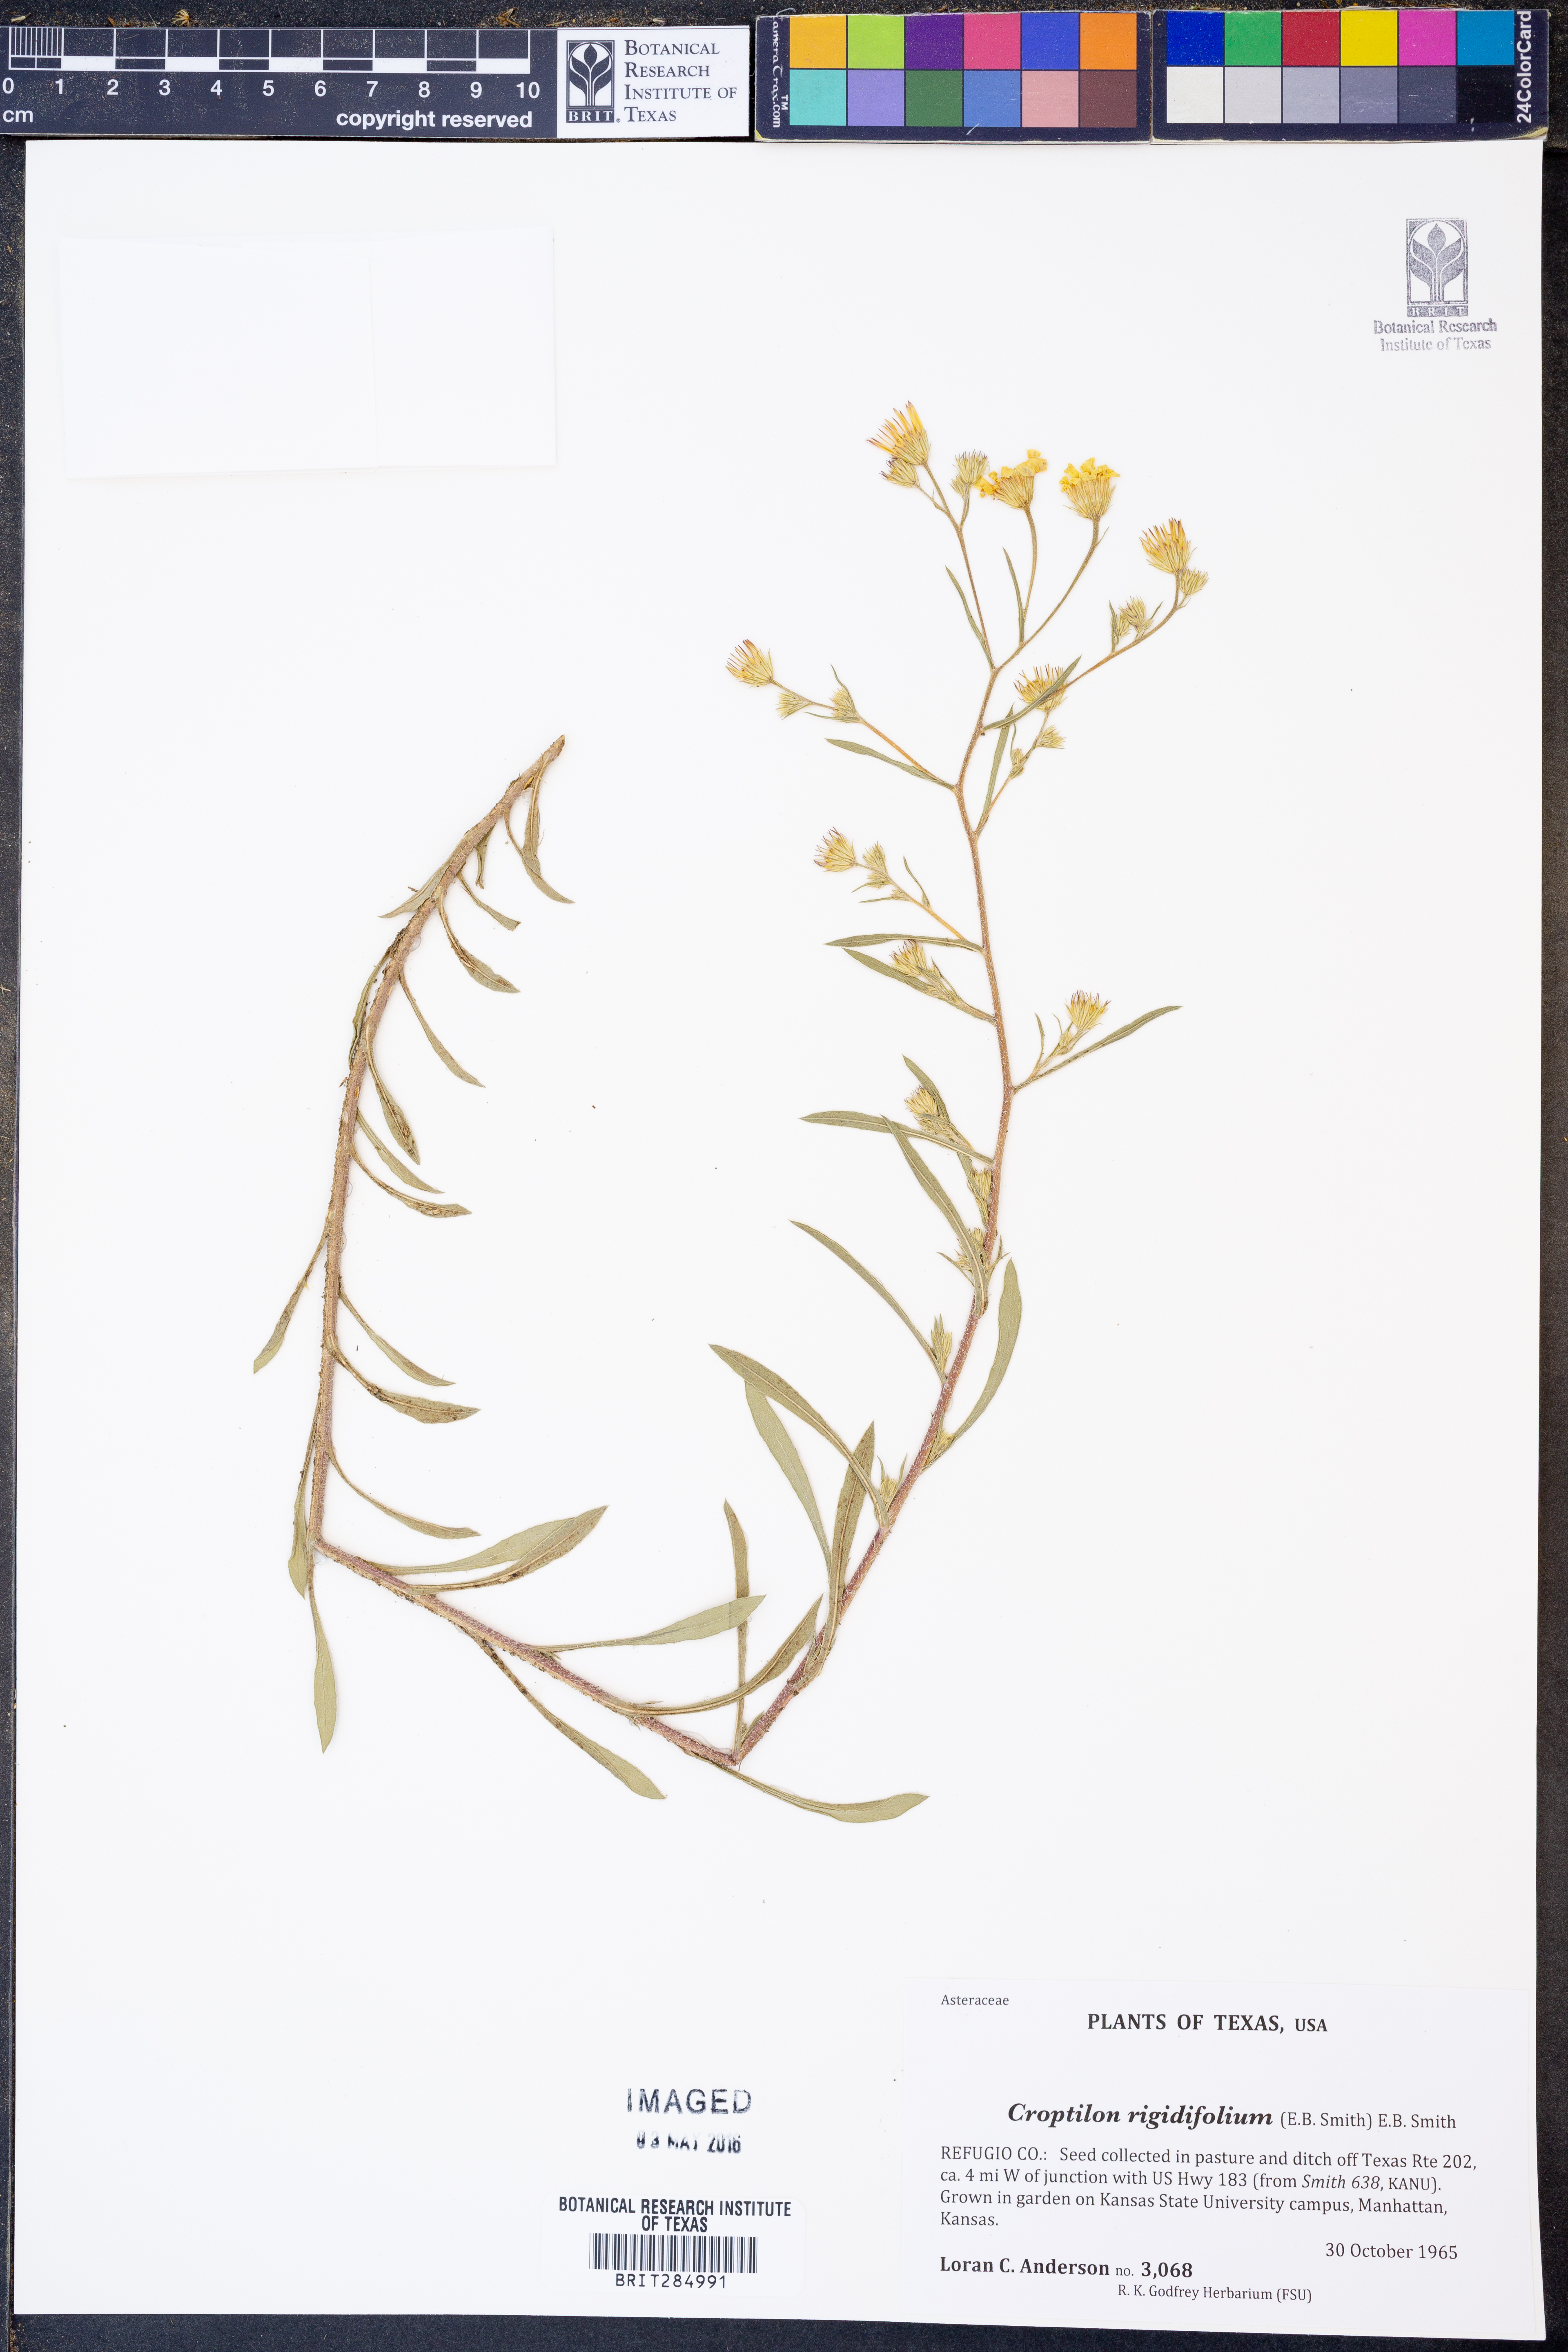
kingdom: Plantae
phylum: Tracheophyta
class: Magnoliopsida
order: Asterales
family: Asteraceae
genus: Croptilon
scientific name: Croptilon rigidifolium
